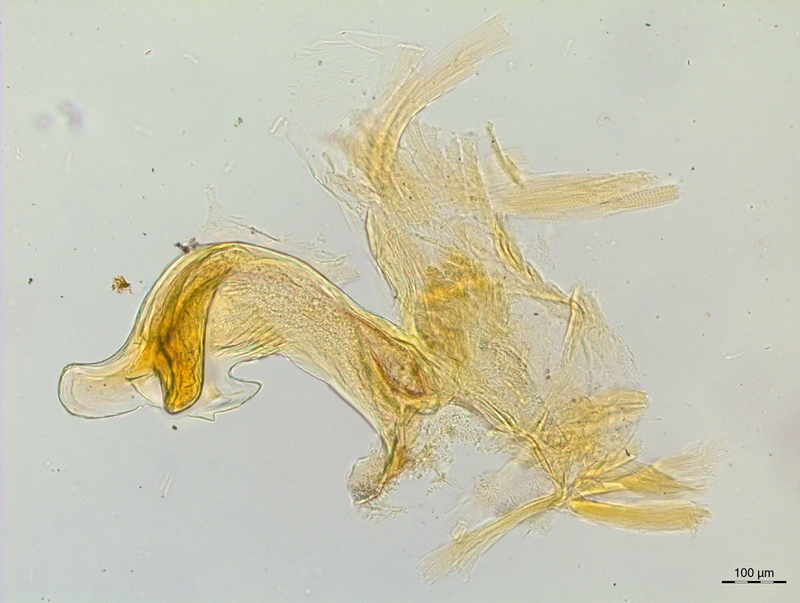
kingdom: Animalia
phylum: Arthropoda
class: Diplopoda
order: Chordeumatida
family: Craspedosomatidae
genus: Craspedosoma
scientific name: Craspedosoma rawlinsii
